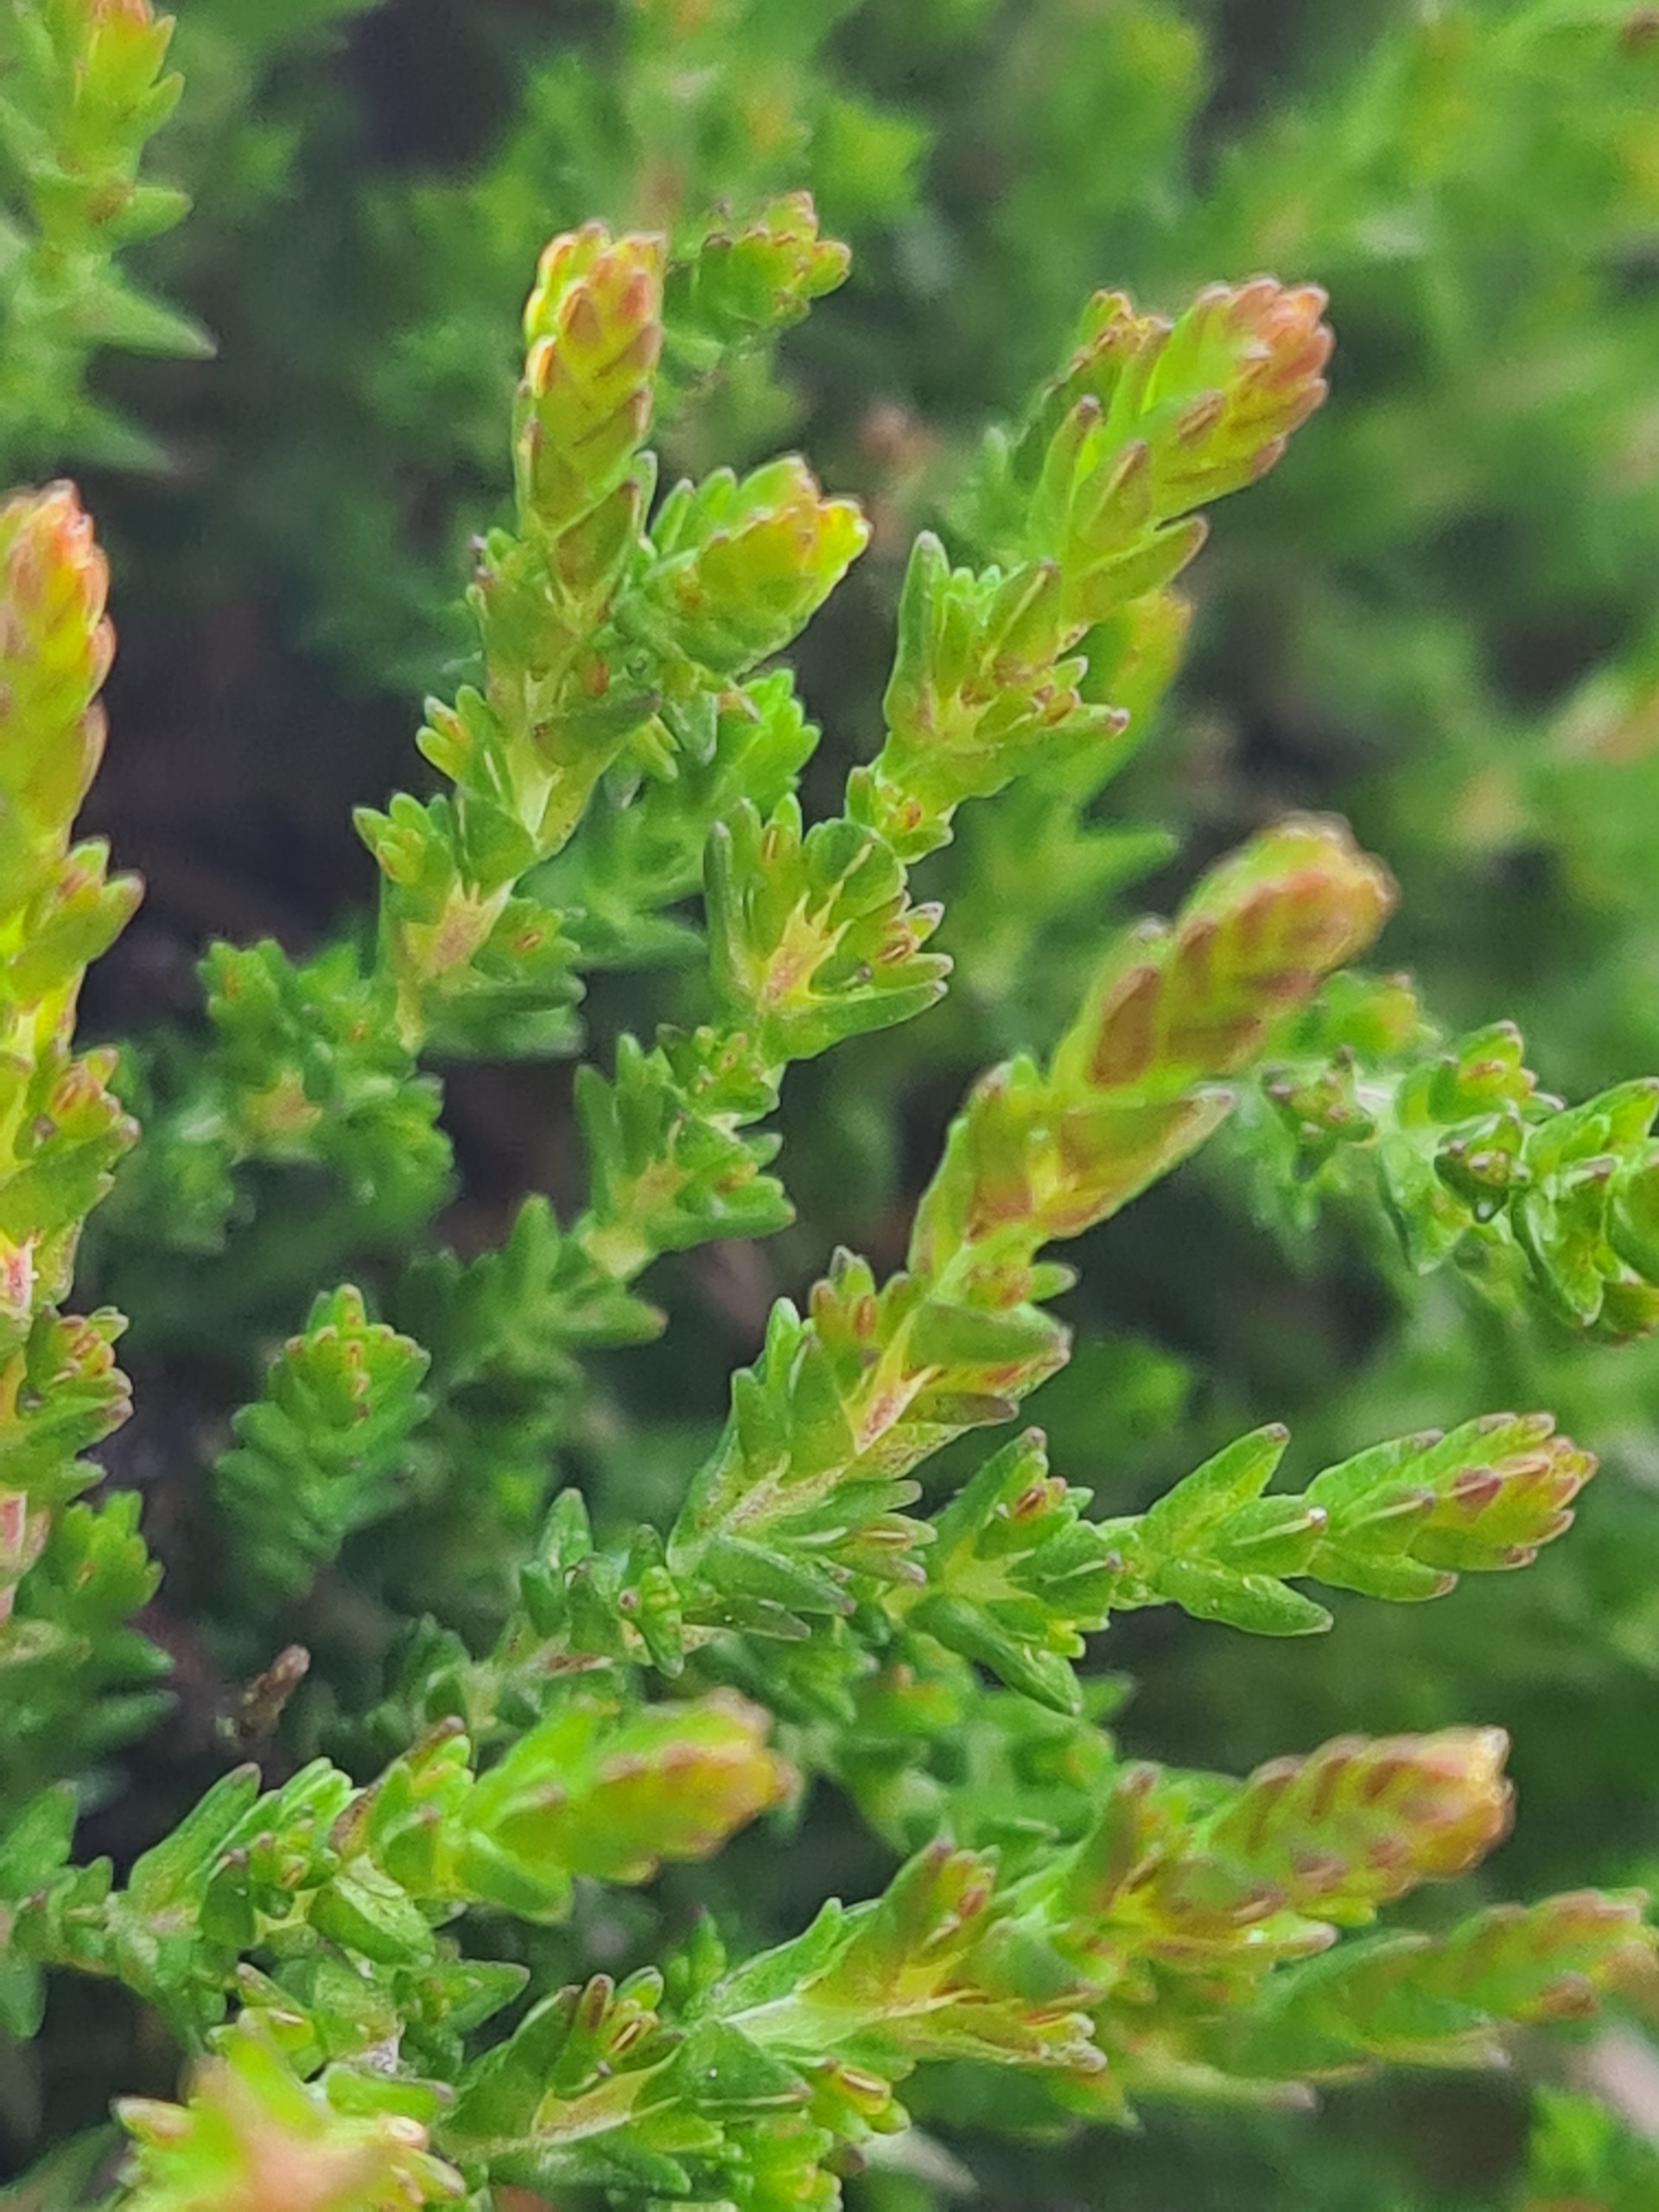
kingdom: Plantae
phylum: Tracheophyta
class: Magnoliopsida
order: Ericales
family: Ericaceae
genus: Calluna
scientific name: Calluna vulgaris
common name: Hedelyng
